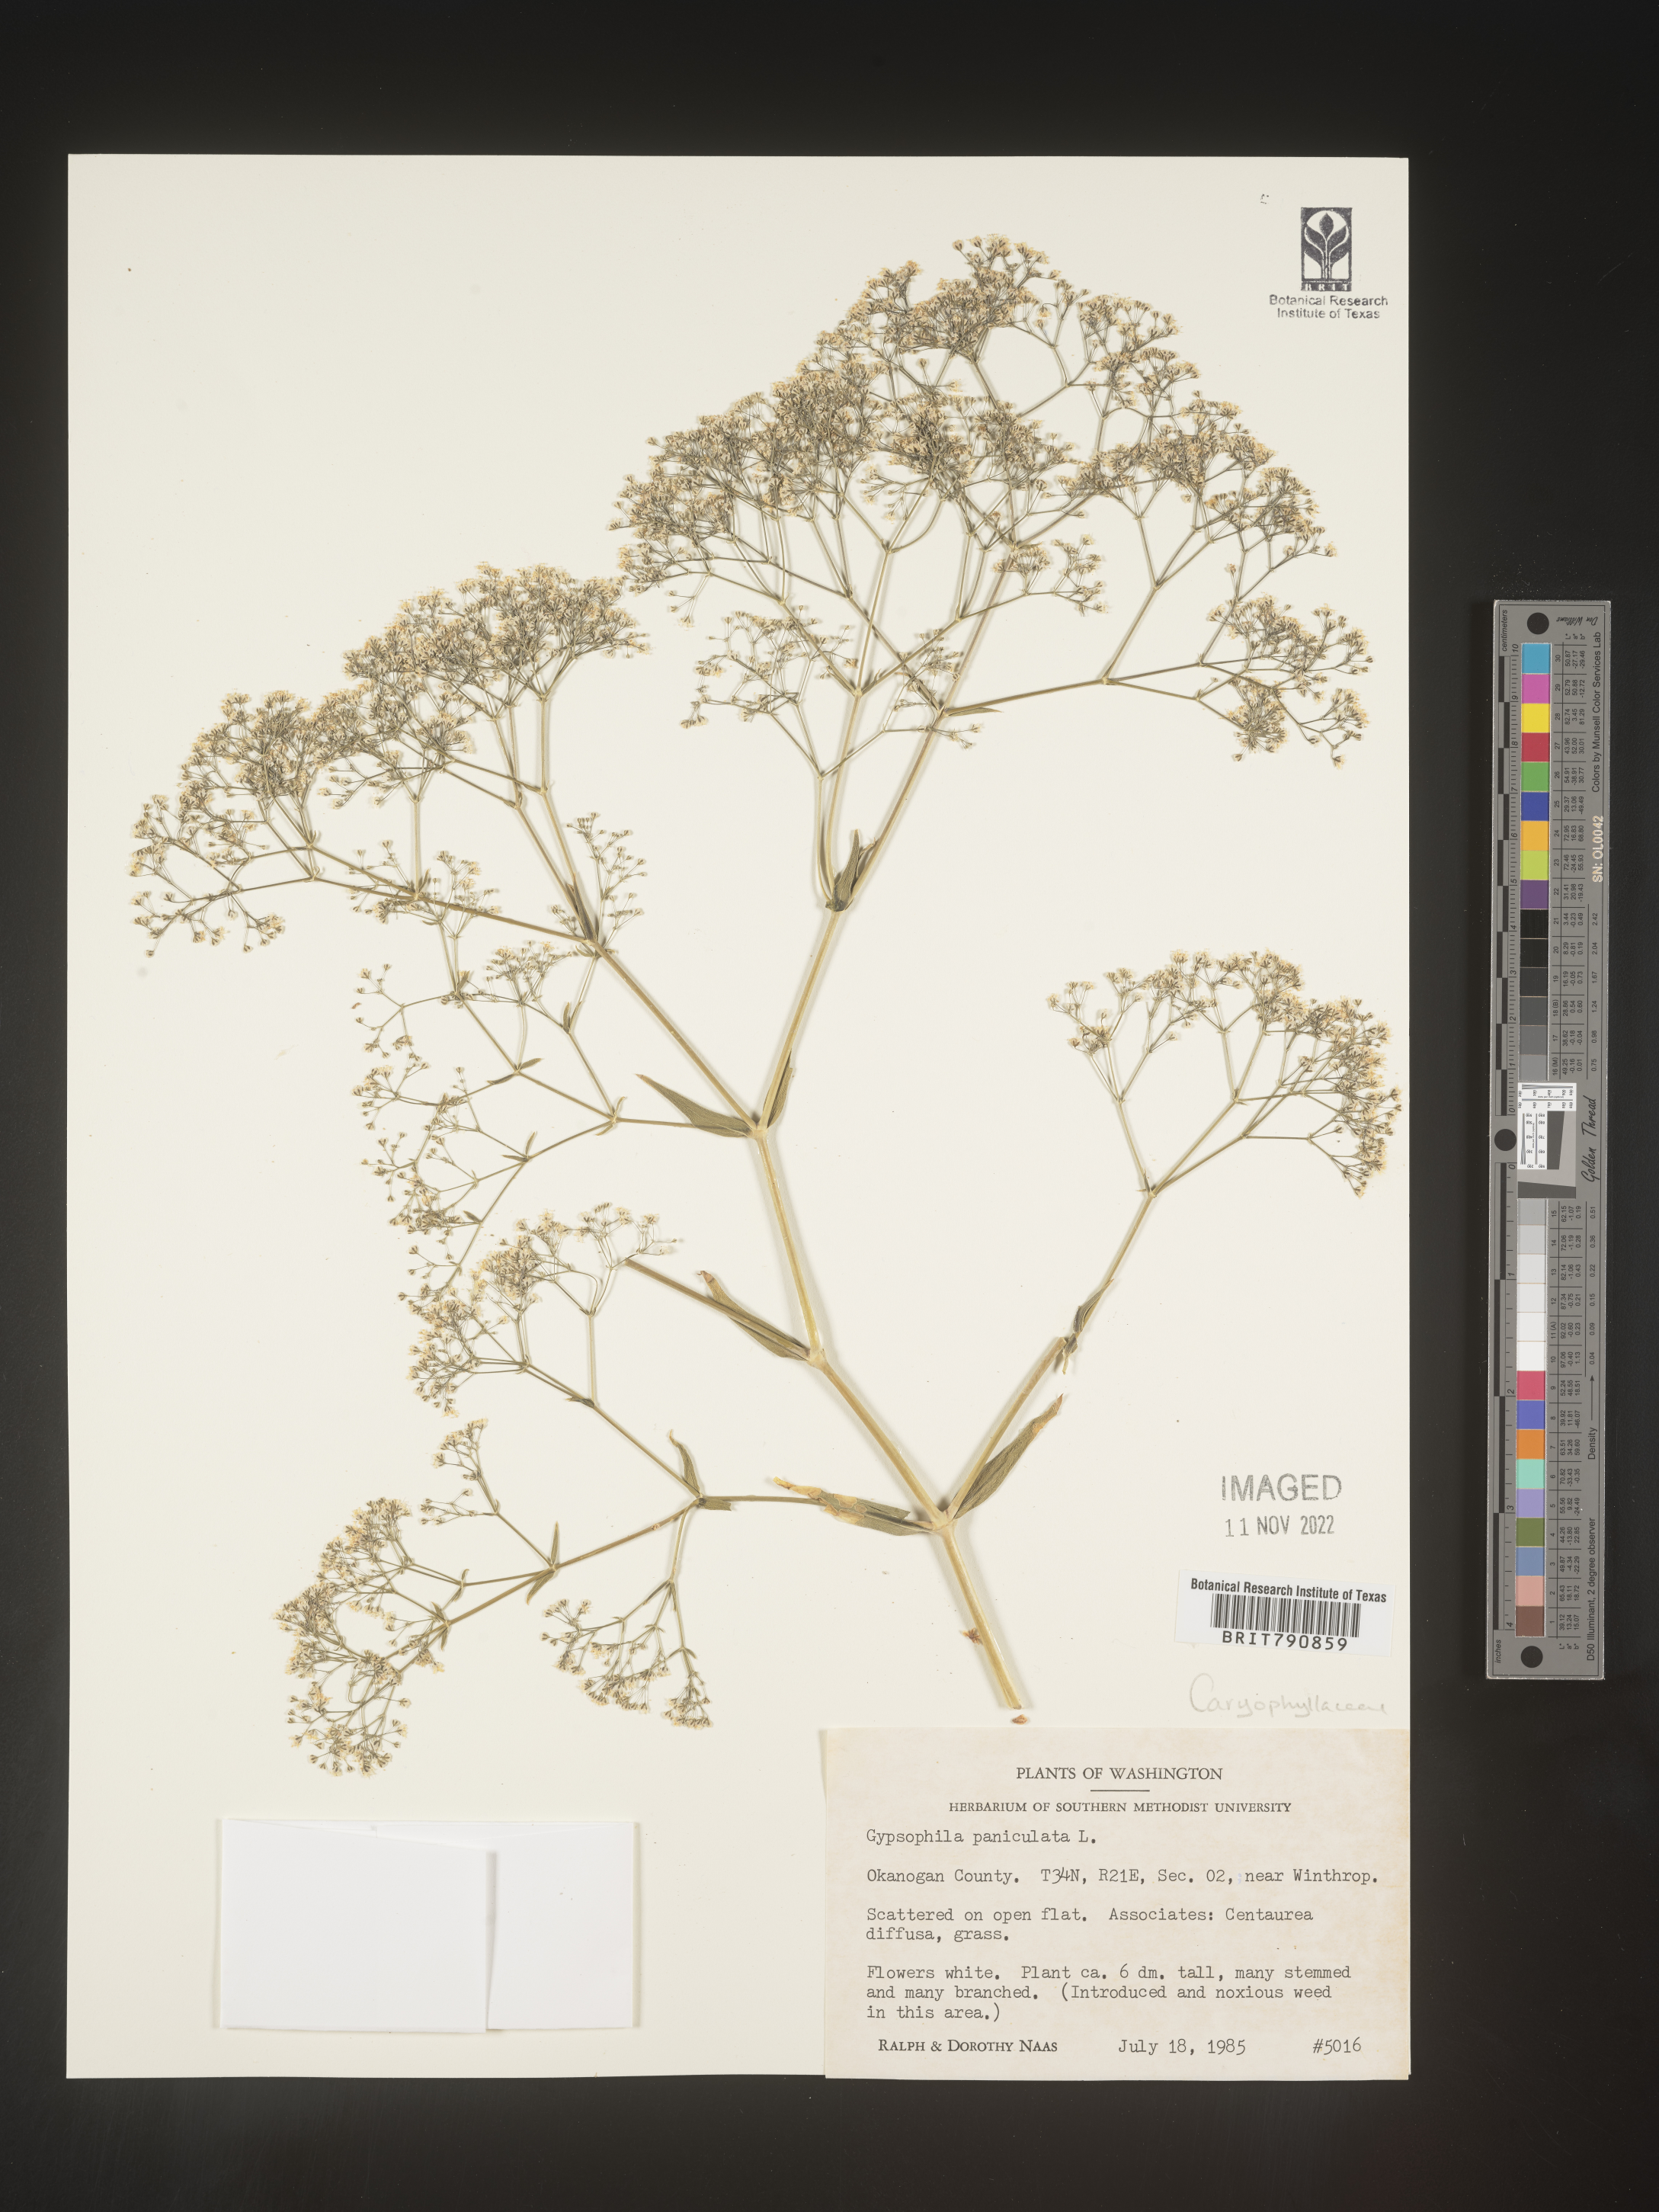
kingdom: Plantae
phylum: Tracheophyta
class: Magnoliopsida
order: Caryophyllales
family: Caryophyllaceae
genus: Gypsophila
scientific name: Gypsophila
